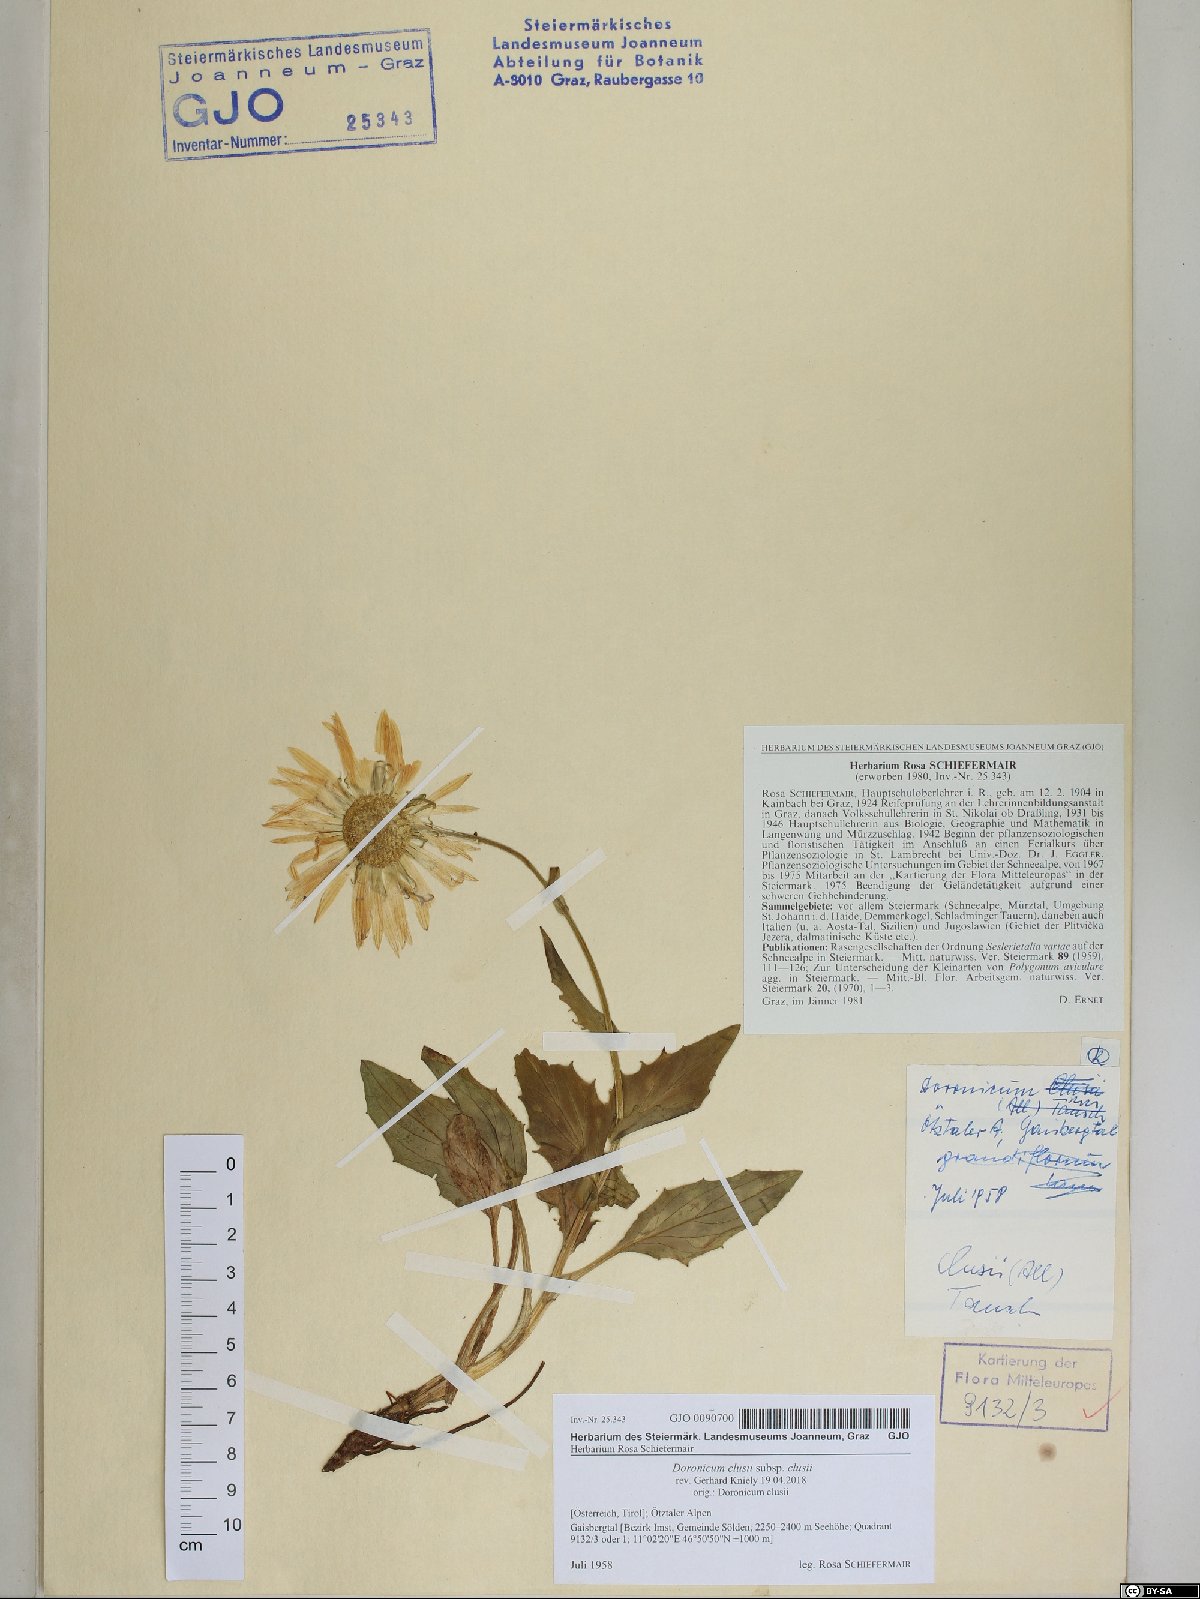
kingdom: Plantae
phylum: Tracheophyta
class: Magnoliopsida
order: Asterales
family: Asteraceae
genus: Doronicum
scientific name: Doronicum clusii
